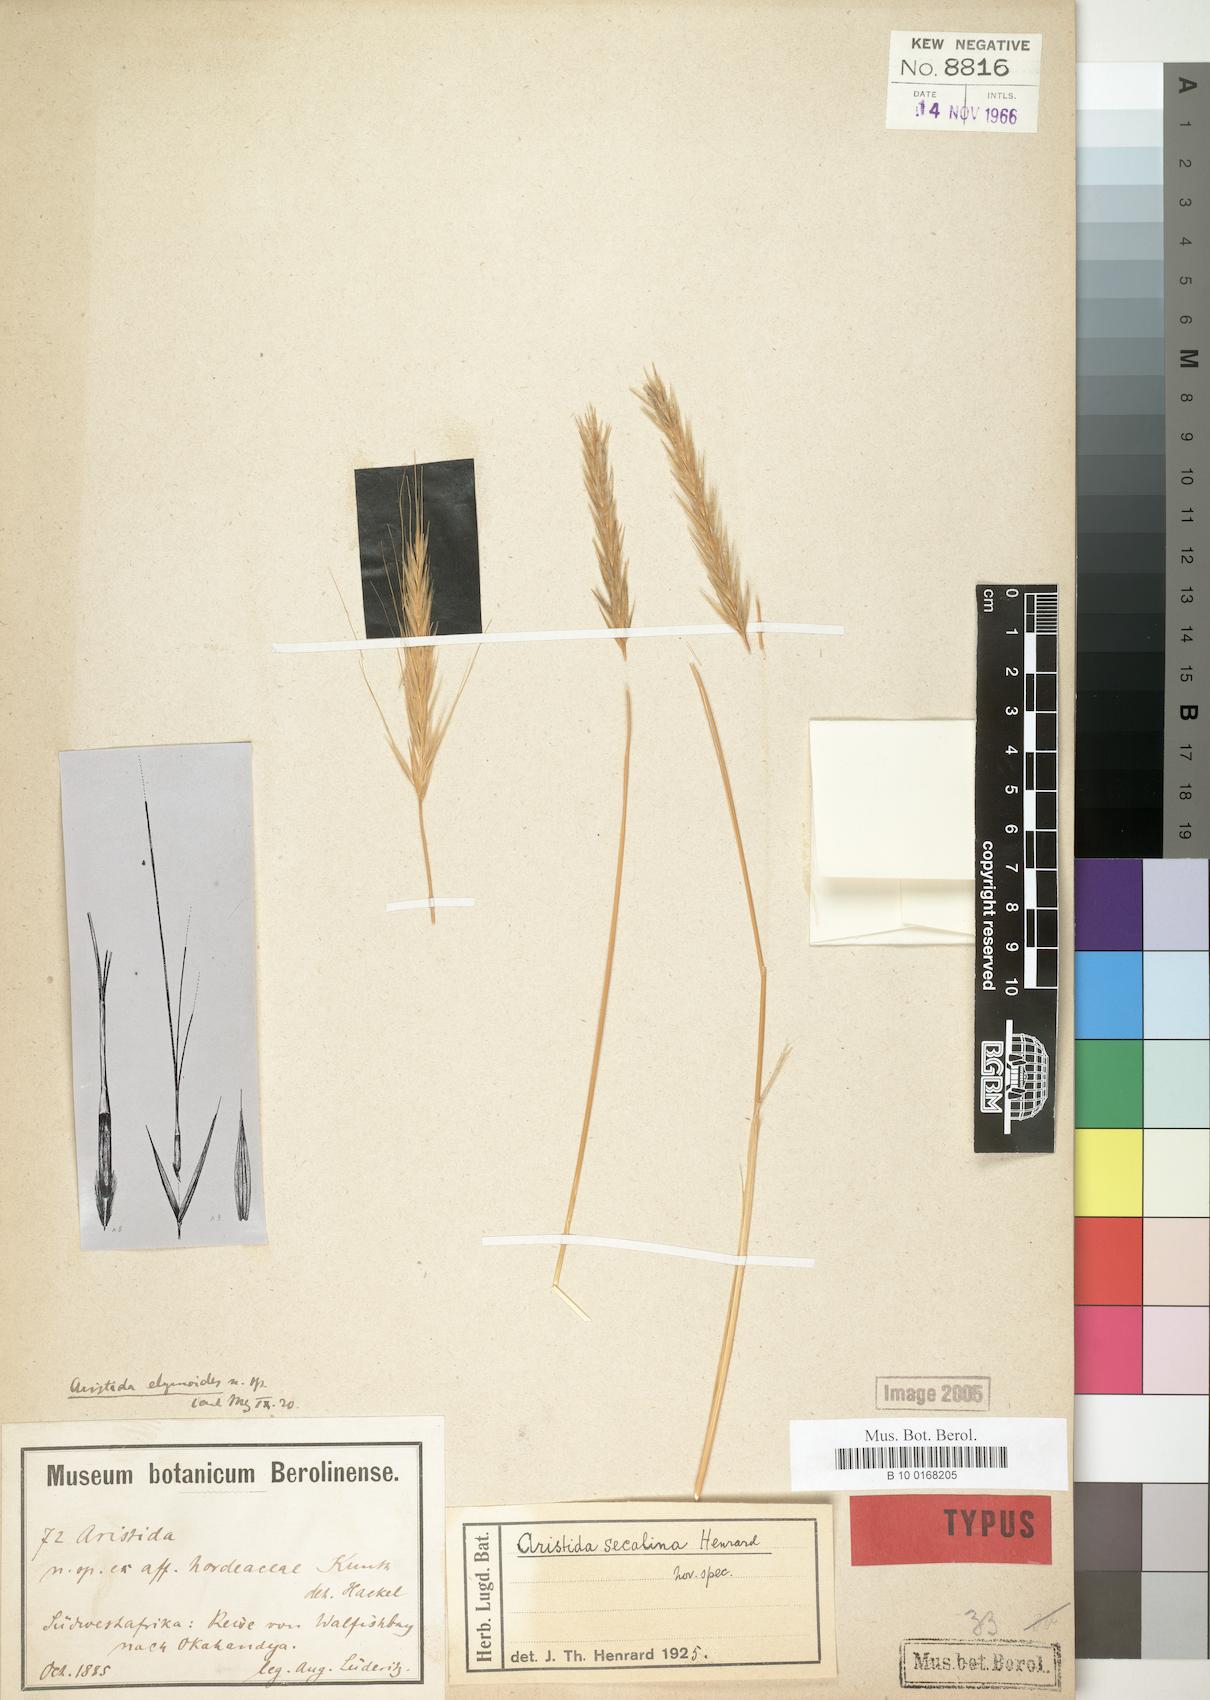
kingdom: Plantae
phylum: Tracheophyta
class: Liliopsida
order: Poales
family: Poaceae
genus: Stipagrostis
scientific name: Stipagrostis hochstetteriana
